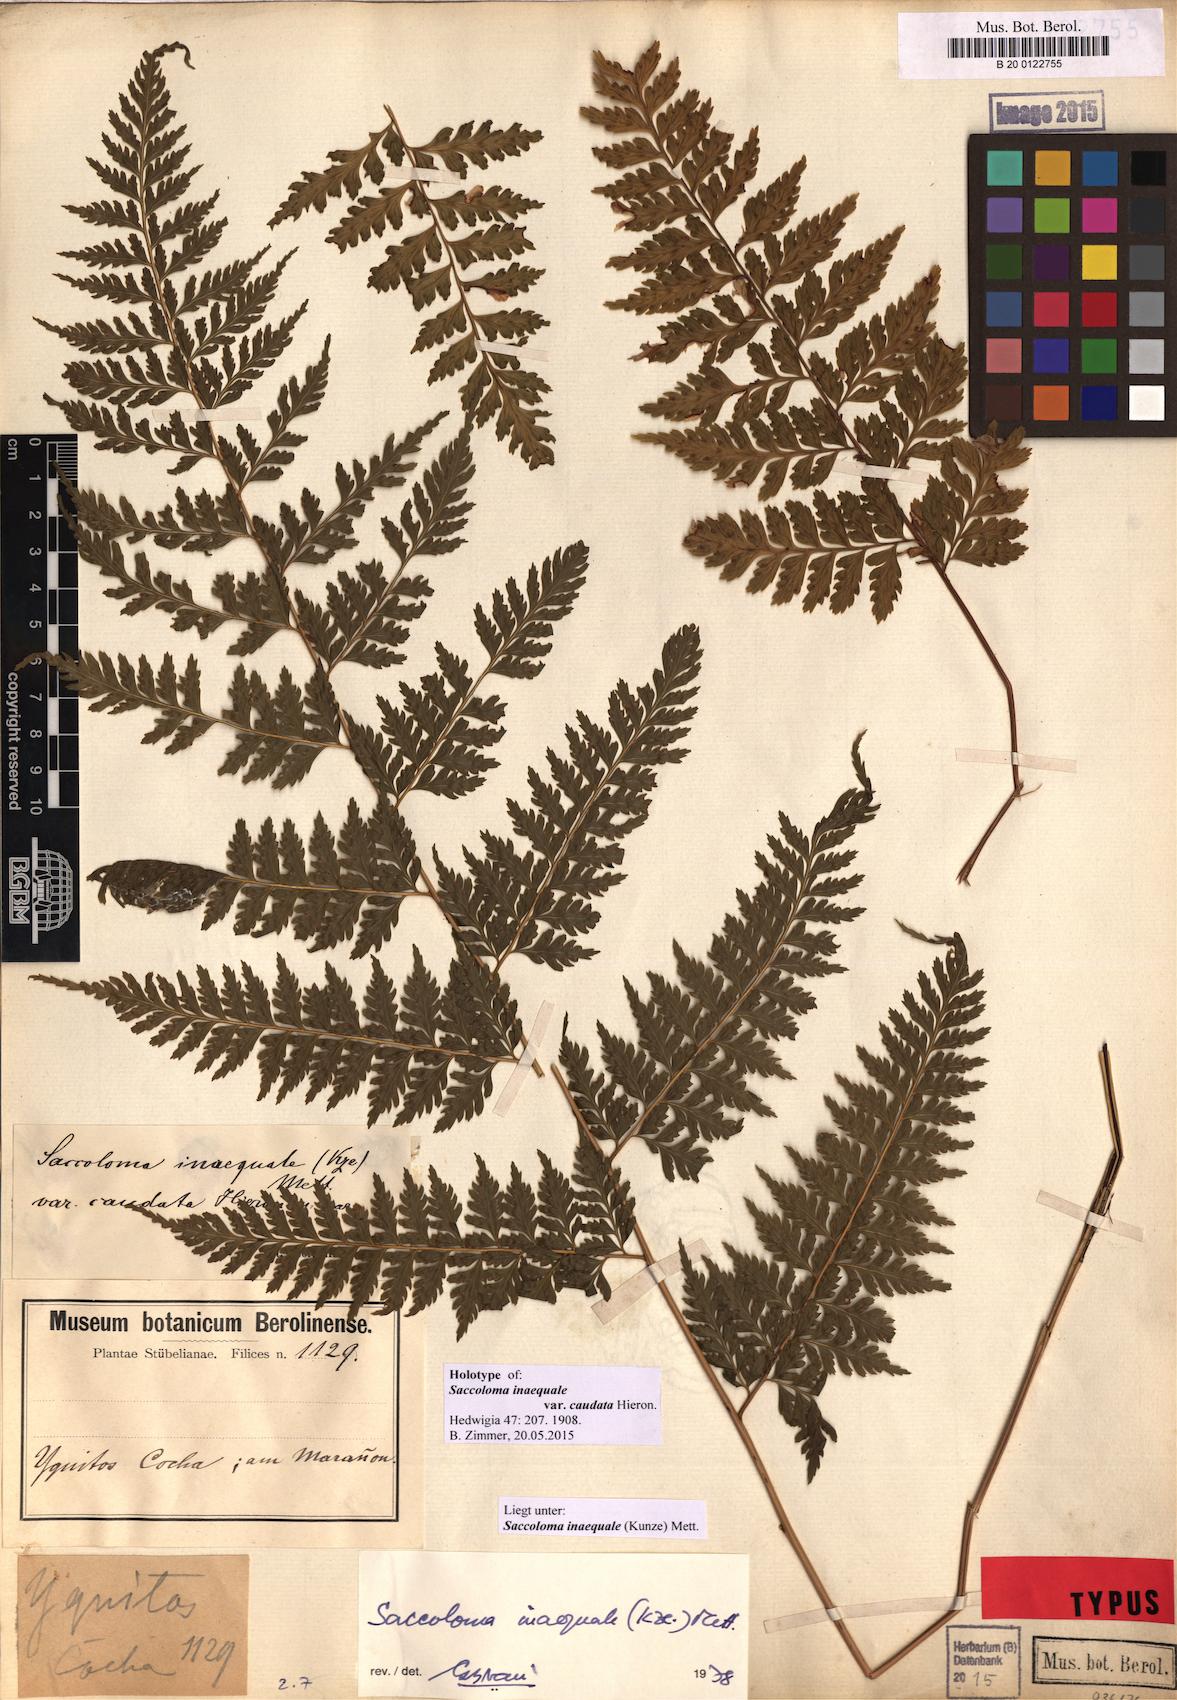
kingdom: Plantae
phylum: Tracheophyta
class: Polypodiopsida
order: Polypodiales
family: Saccolomataceae
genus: Saccoloma
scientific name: Saccoloma inaequale
